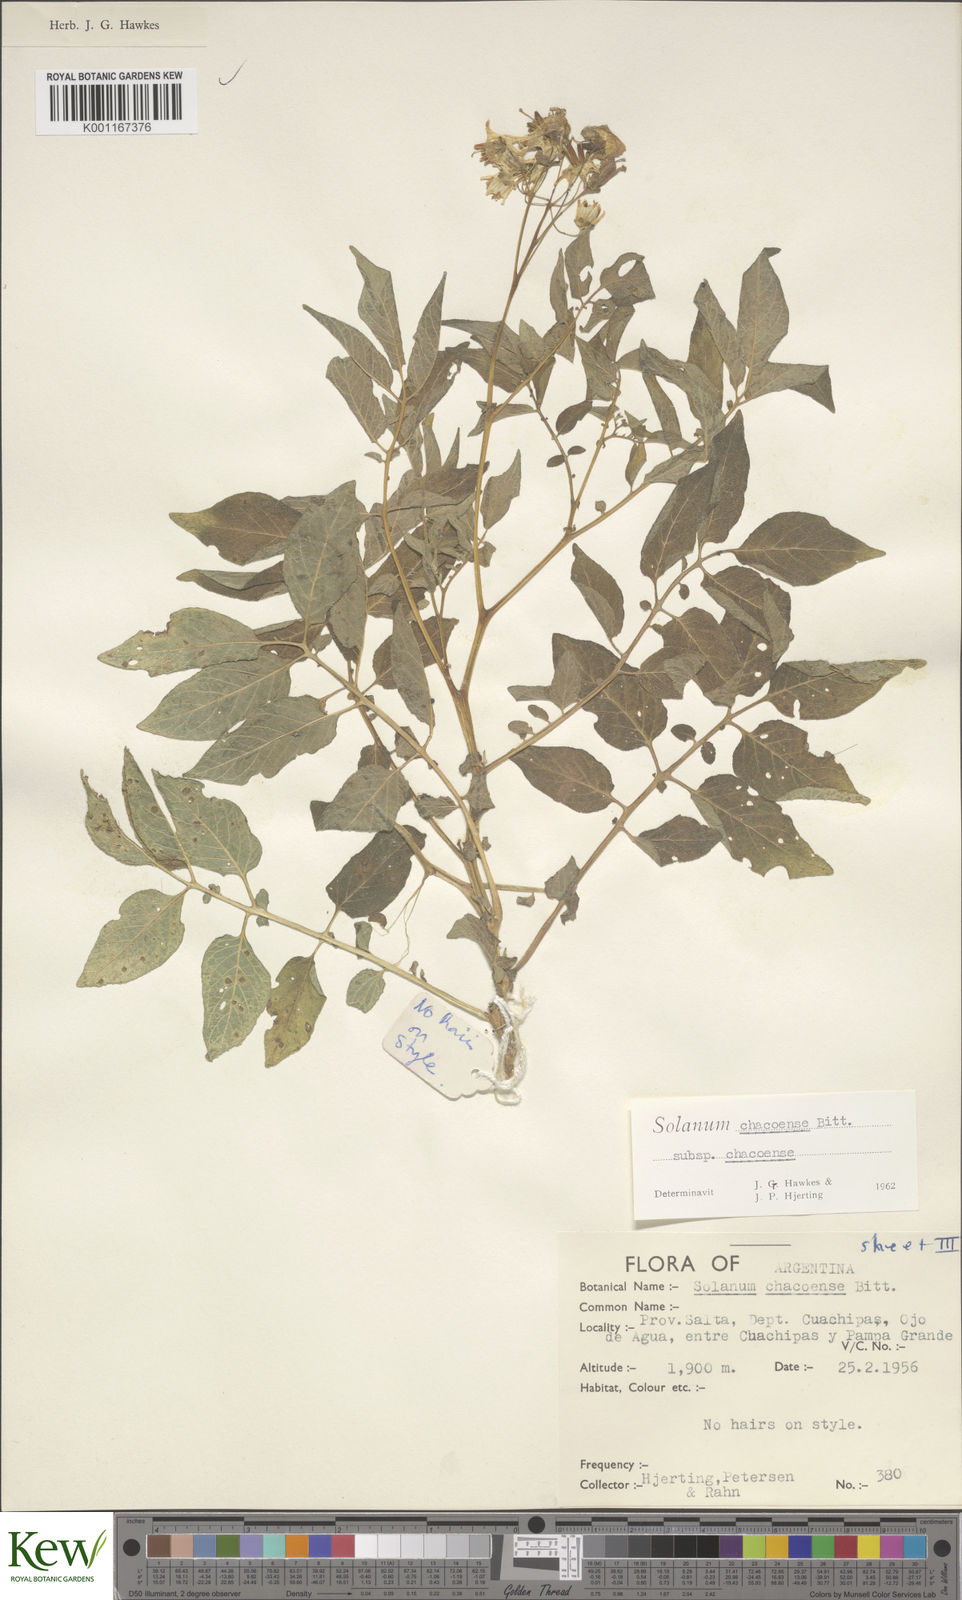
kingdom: Plantae
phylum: Tracheophyta
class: Magnoliopsida
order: Solanales
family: Solanaceae
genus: Solanum
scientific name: Solanum chacoense
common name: Chaco potato
